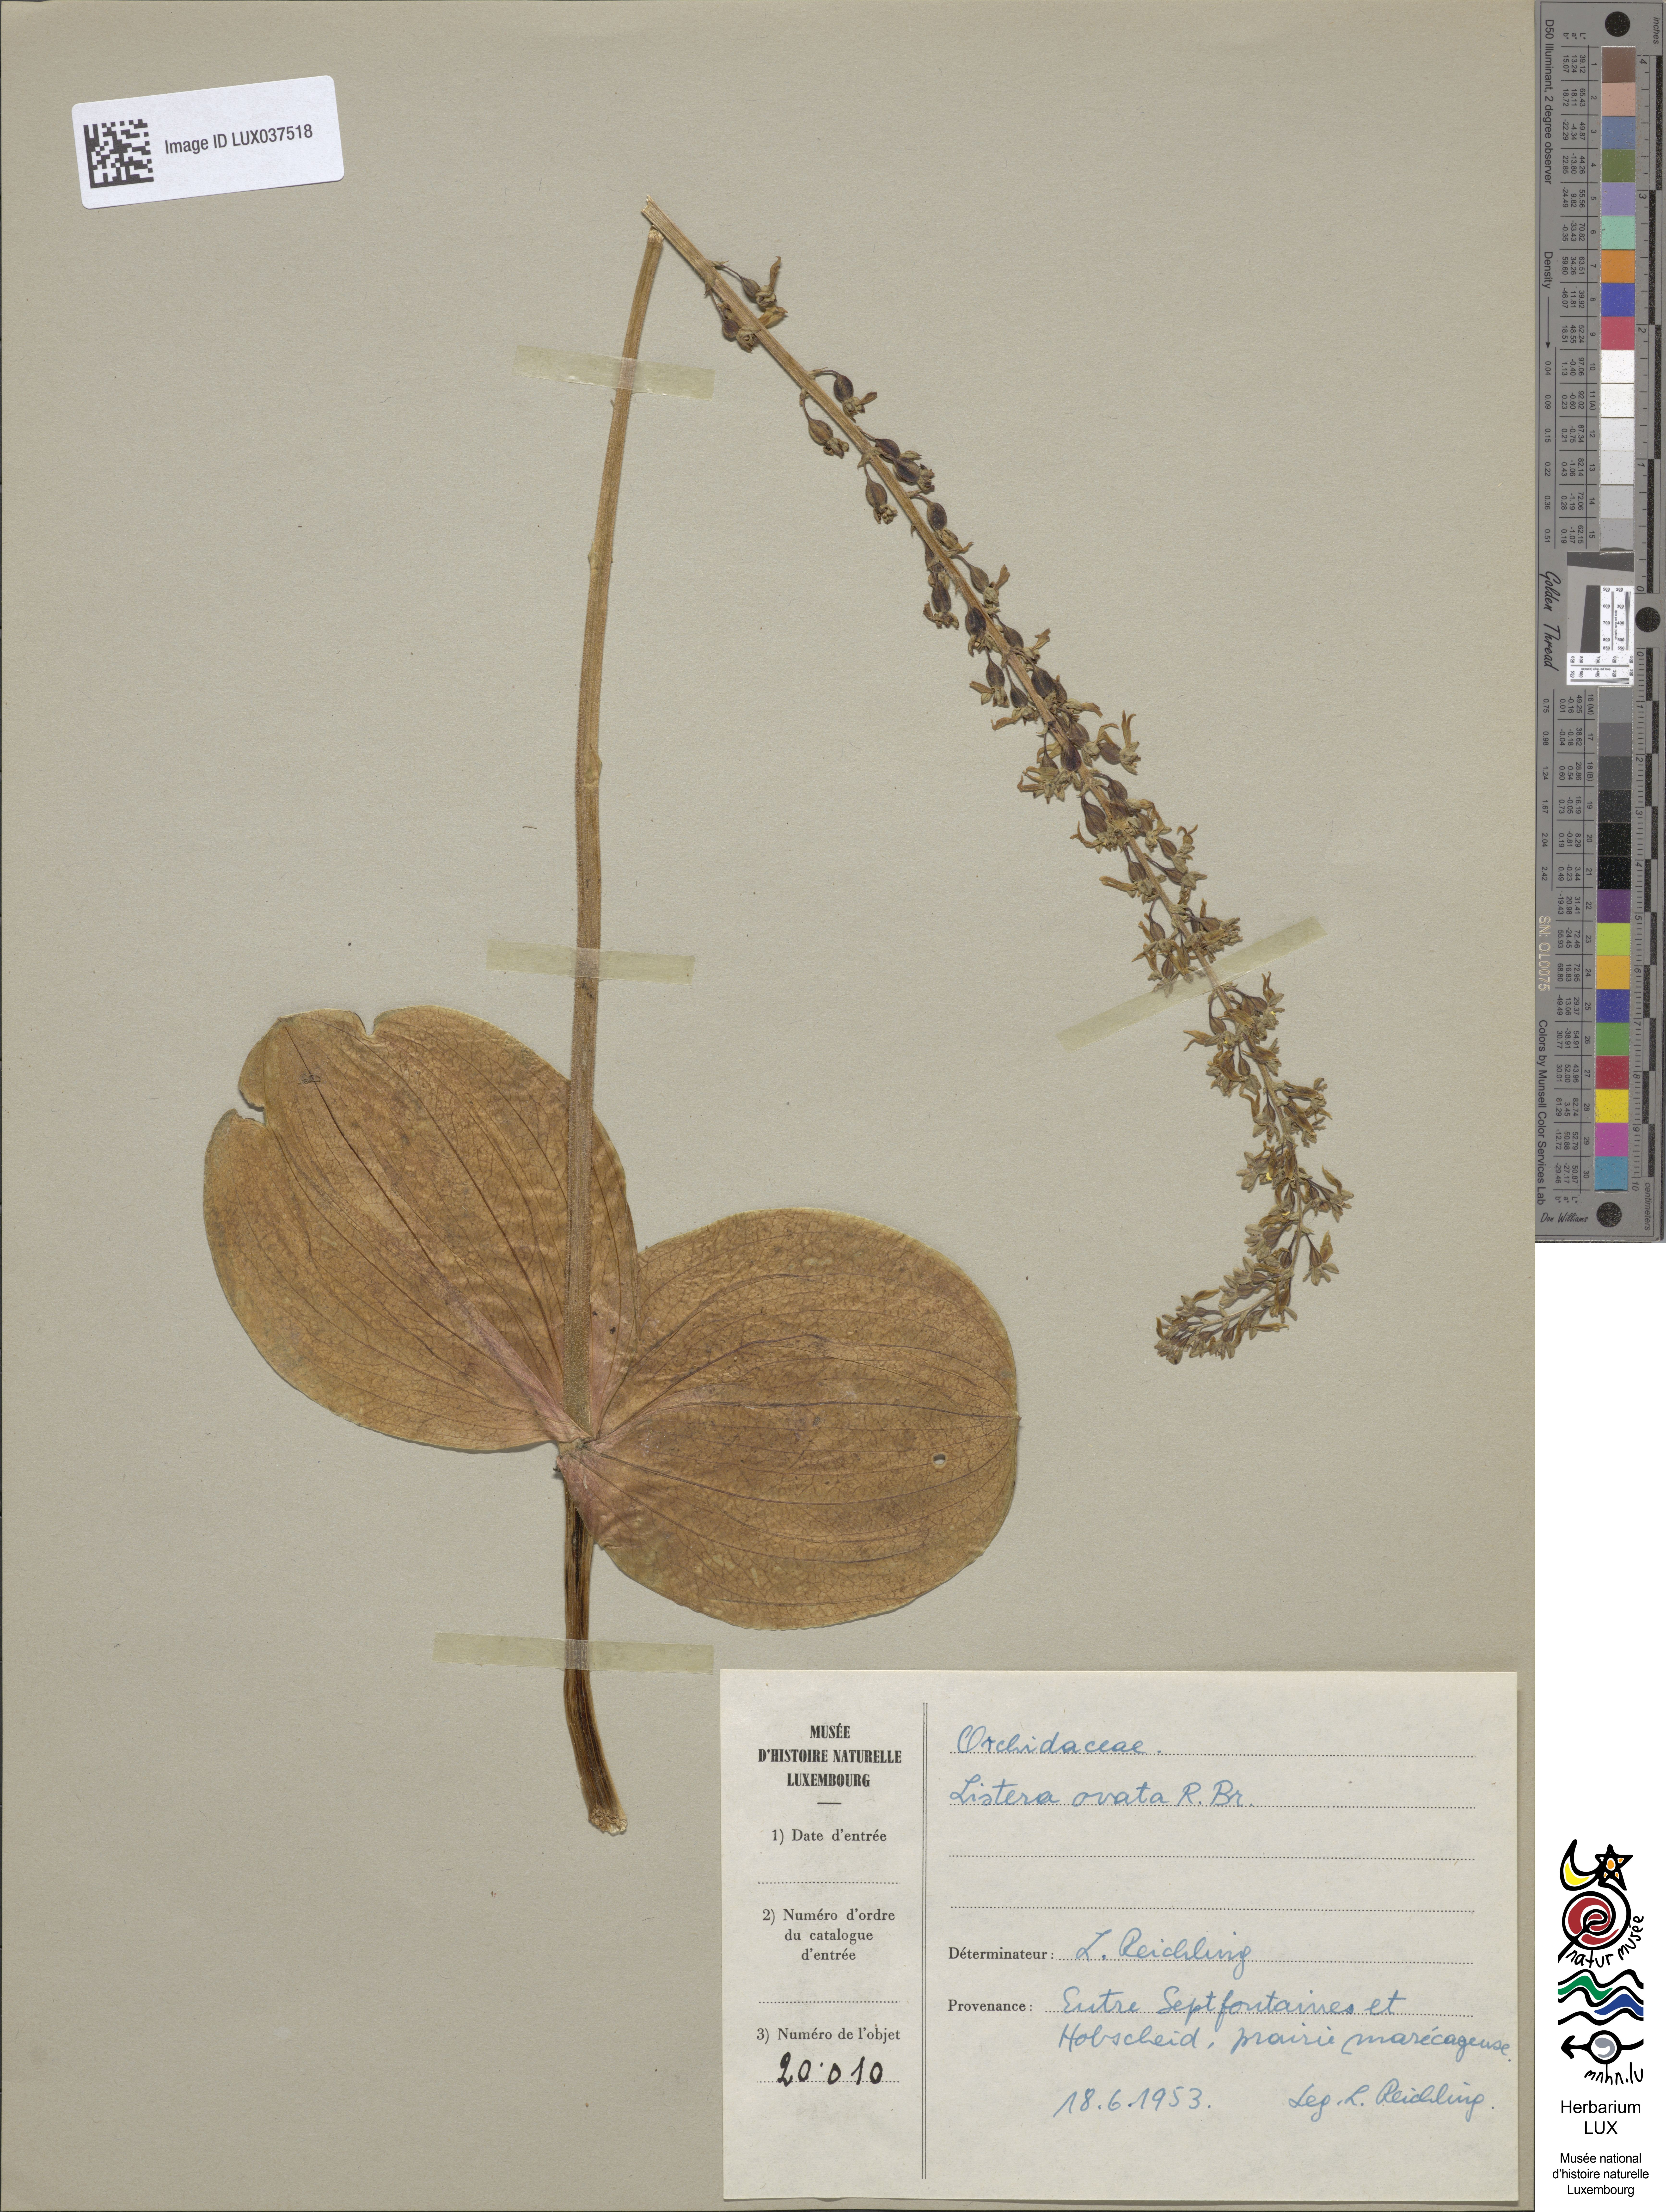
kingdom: Plantae
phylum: Tracheophyta
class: Liliopsida
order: Asparagales
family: Orchidaceae
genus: Neottia
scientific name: Neottia ovata
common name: Common twayblade
